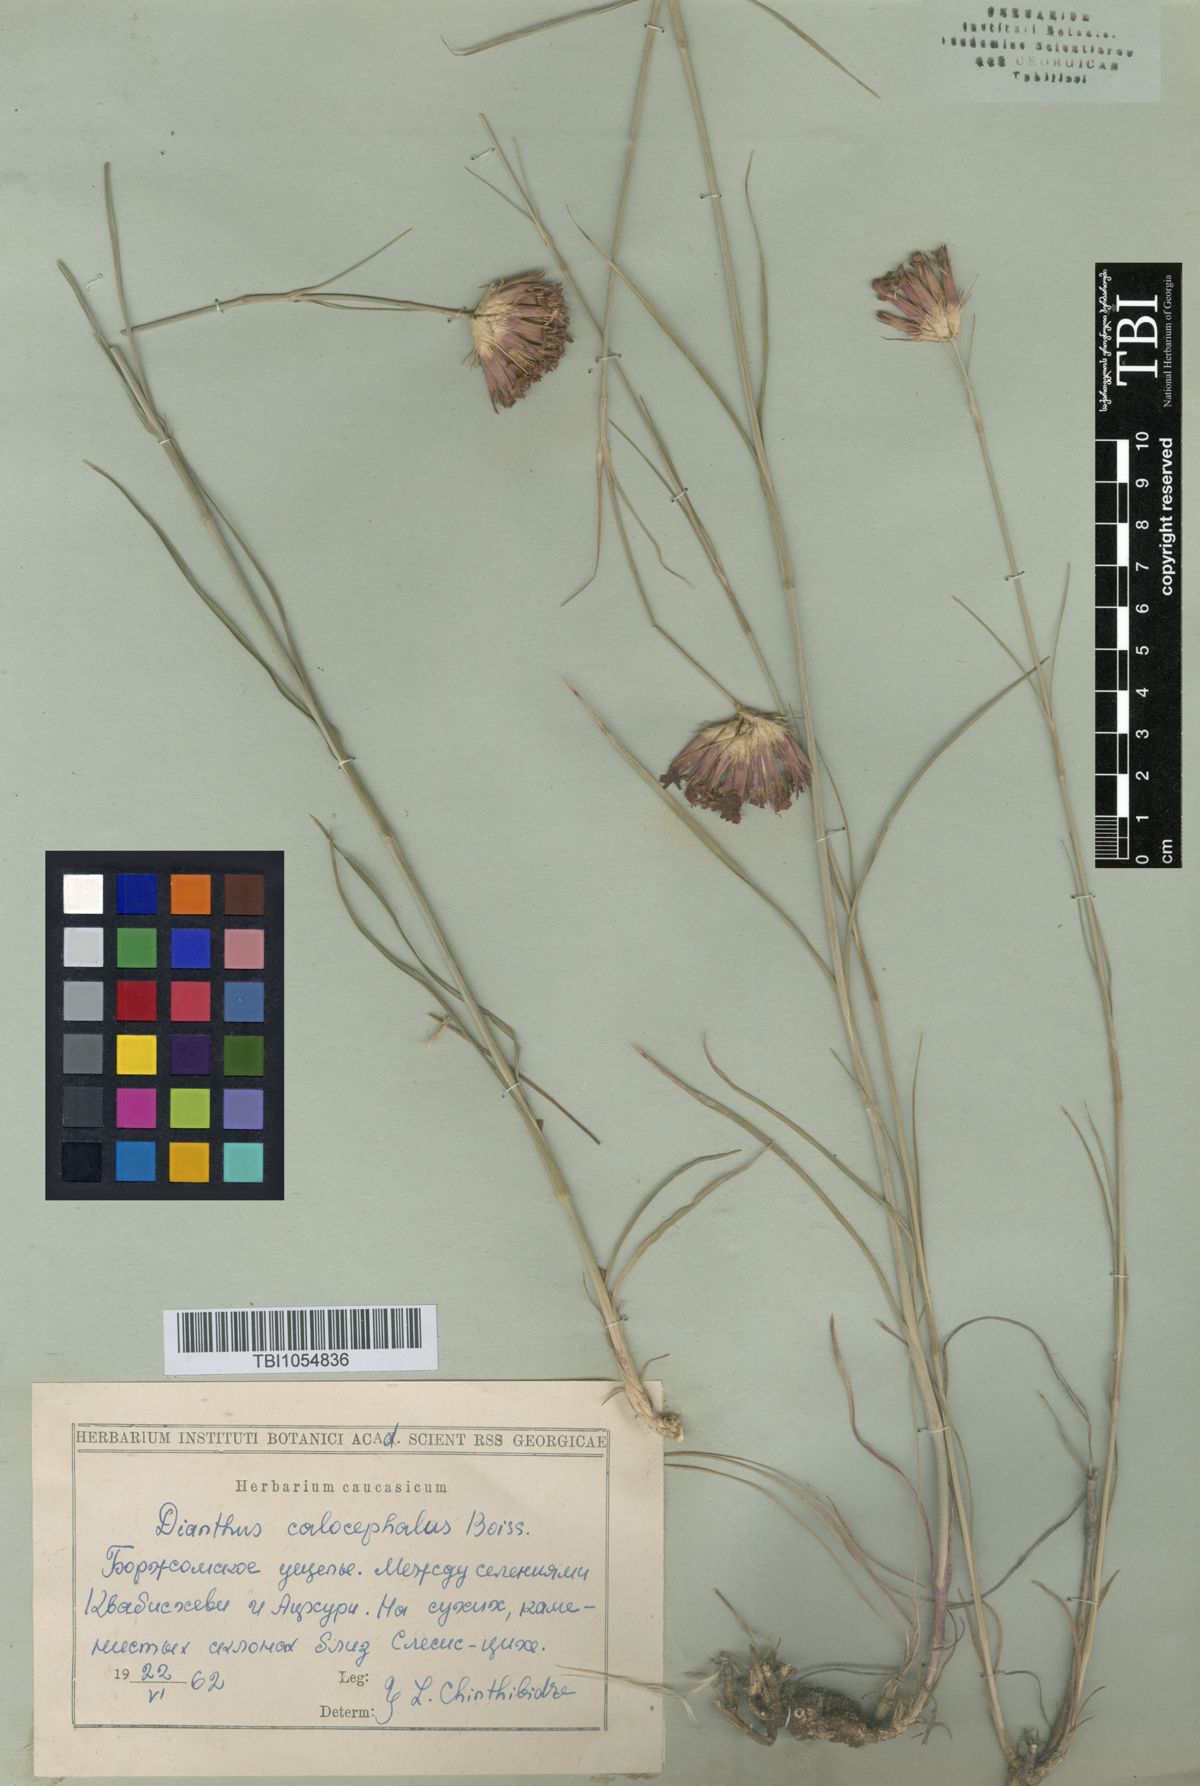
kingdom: Plantae
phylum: Tracheophyta
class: Magnoliopsida
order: Caryophyllales
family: Caryophyllaceae
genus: Dianthus
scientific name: Dianthus cruentus
